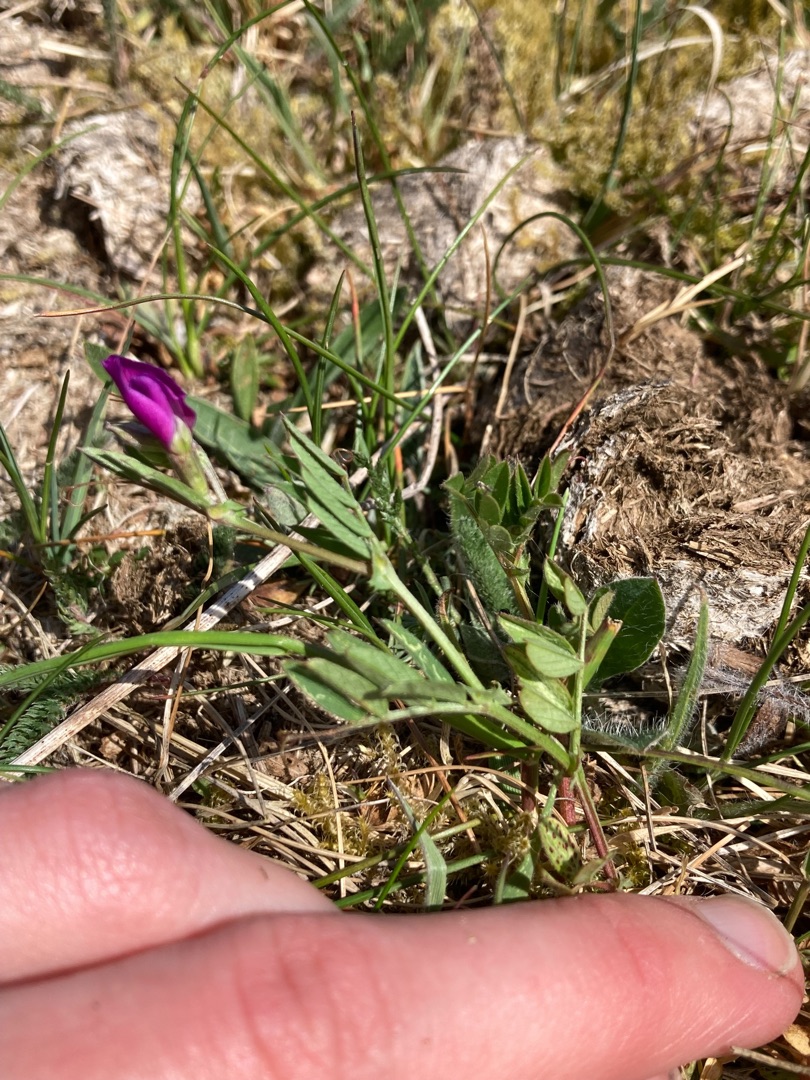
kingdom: Plantae
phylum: Tracheophyta
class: Magnoliopsida
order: Fabales
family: Fabaceae
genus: Vicia
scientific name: Vicia sativa
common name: Smalbladet vikke
